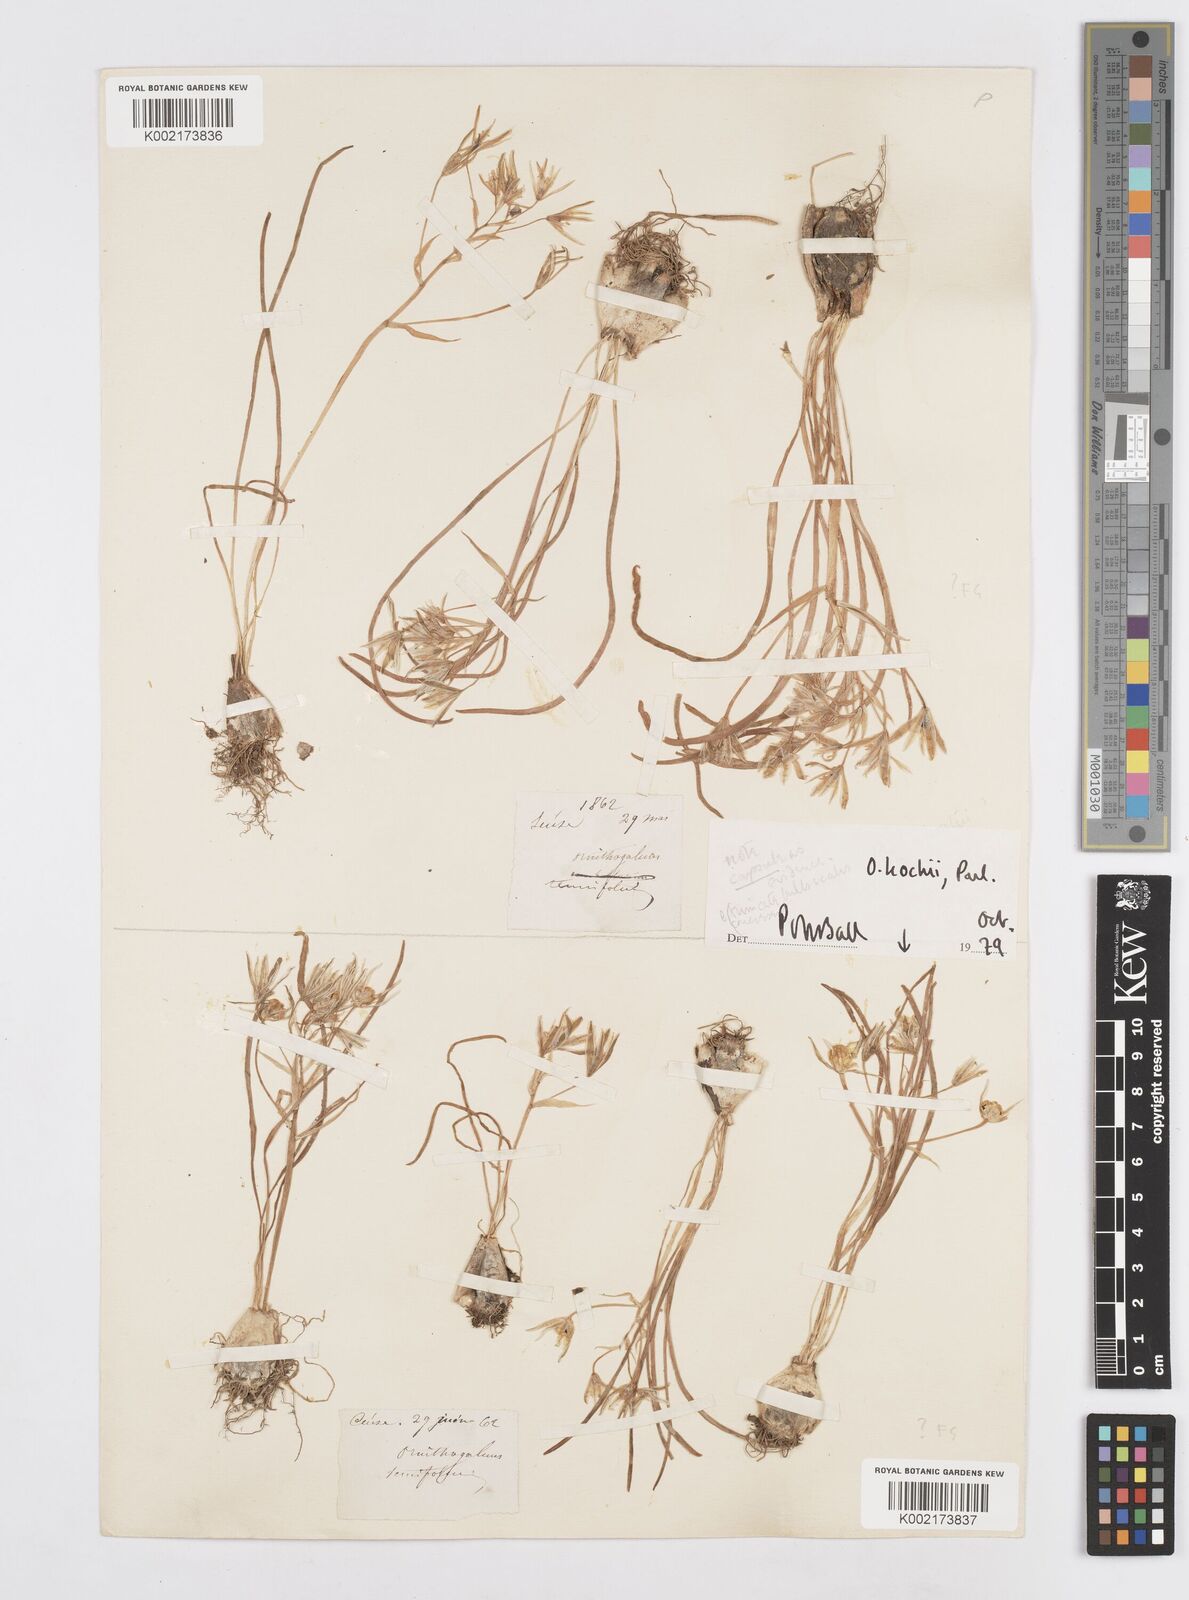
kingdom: Plantae
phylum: Tracheophyta
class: Liliopsida
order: Asparagales
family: Asparagaceae
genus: Ornithogalum
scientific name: Ornithogalum orthophyllum
